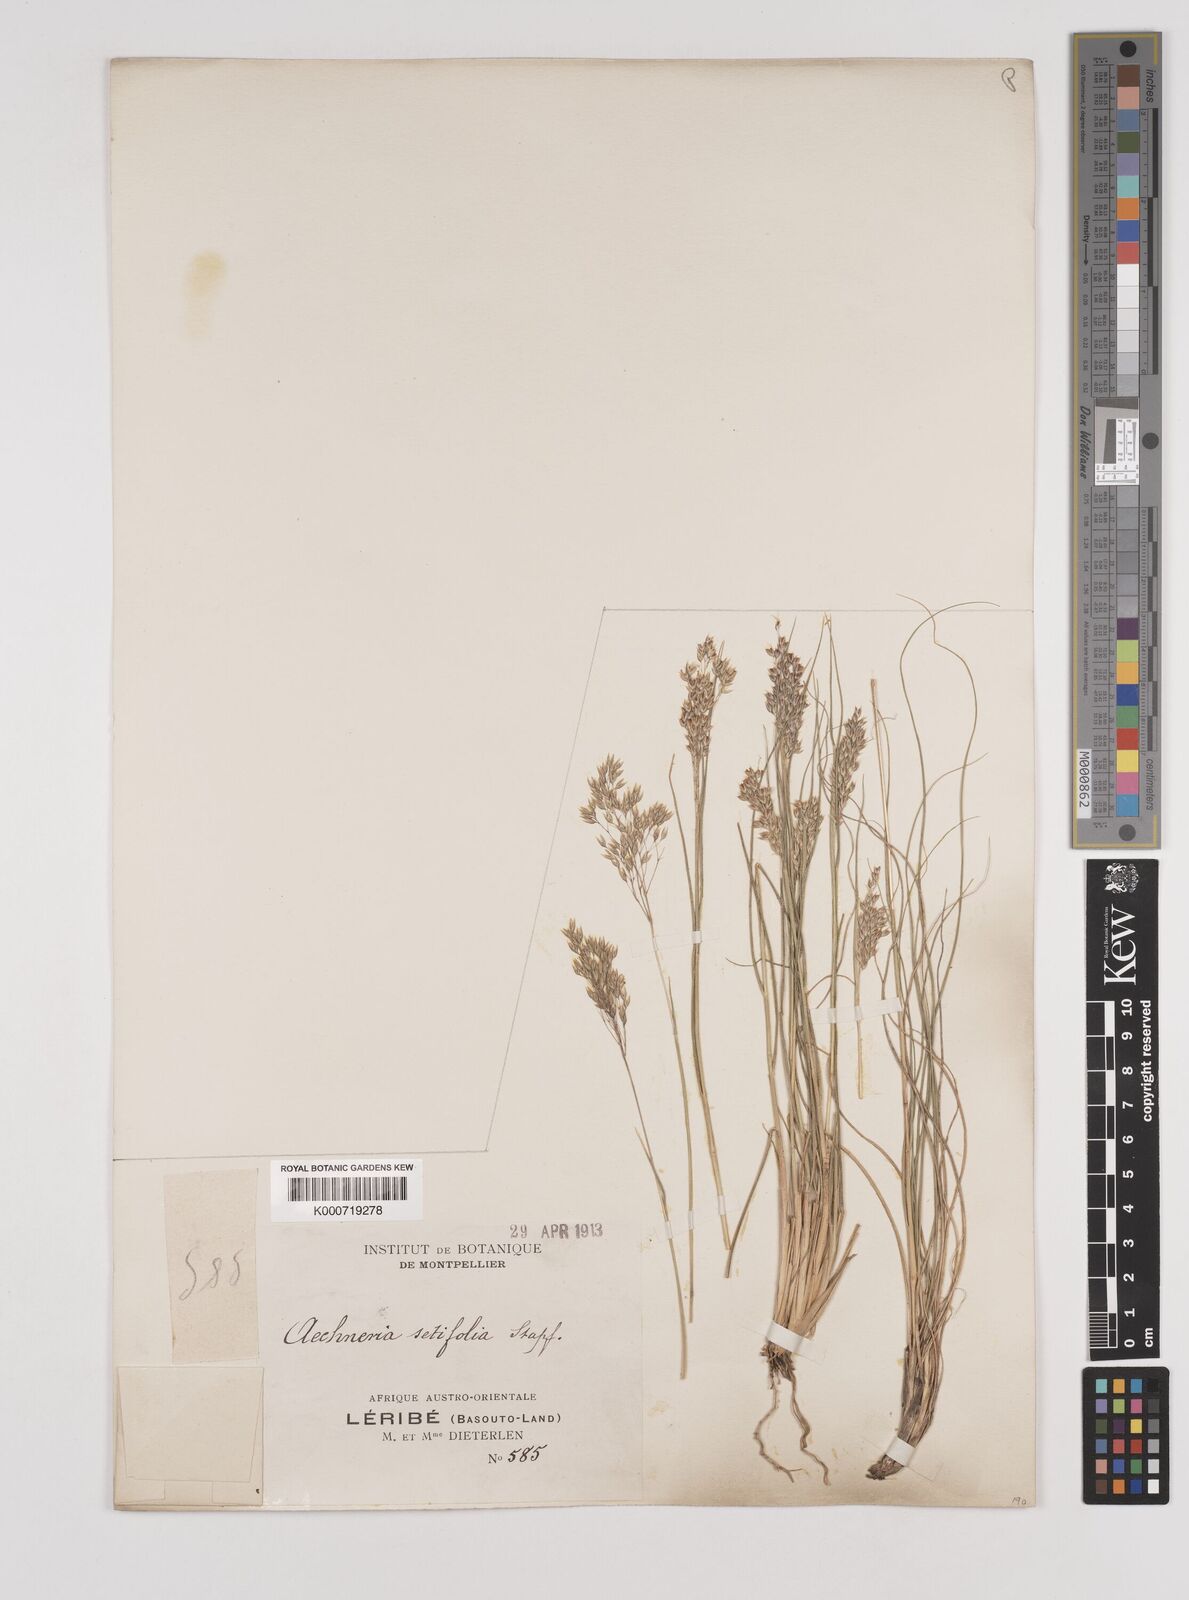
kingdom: Plantae
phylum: Tracheophyta
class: Liliopsida
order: Poales
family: Poaceae
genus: Pentameris
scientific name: Pentameris setifolia
